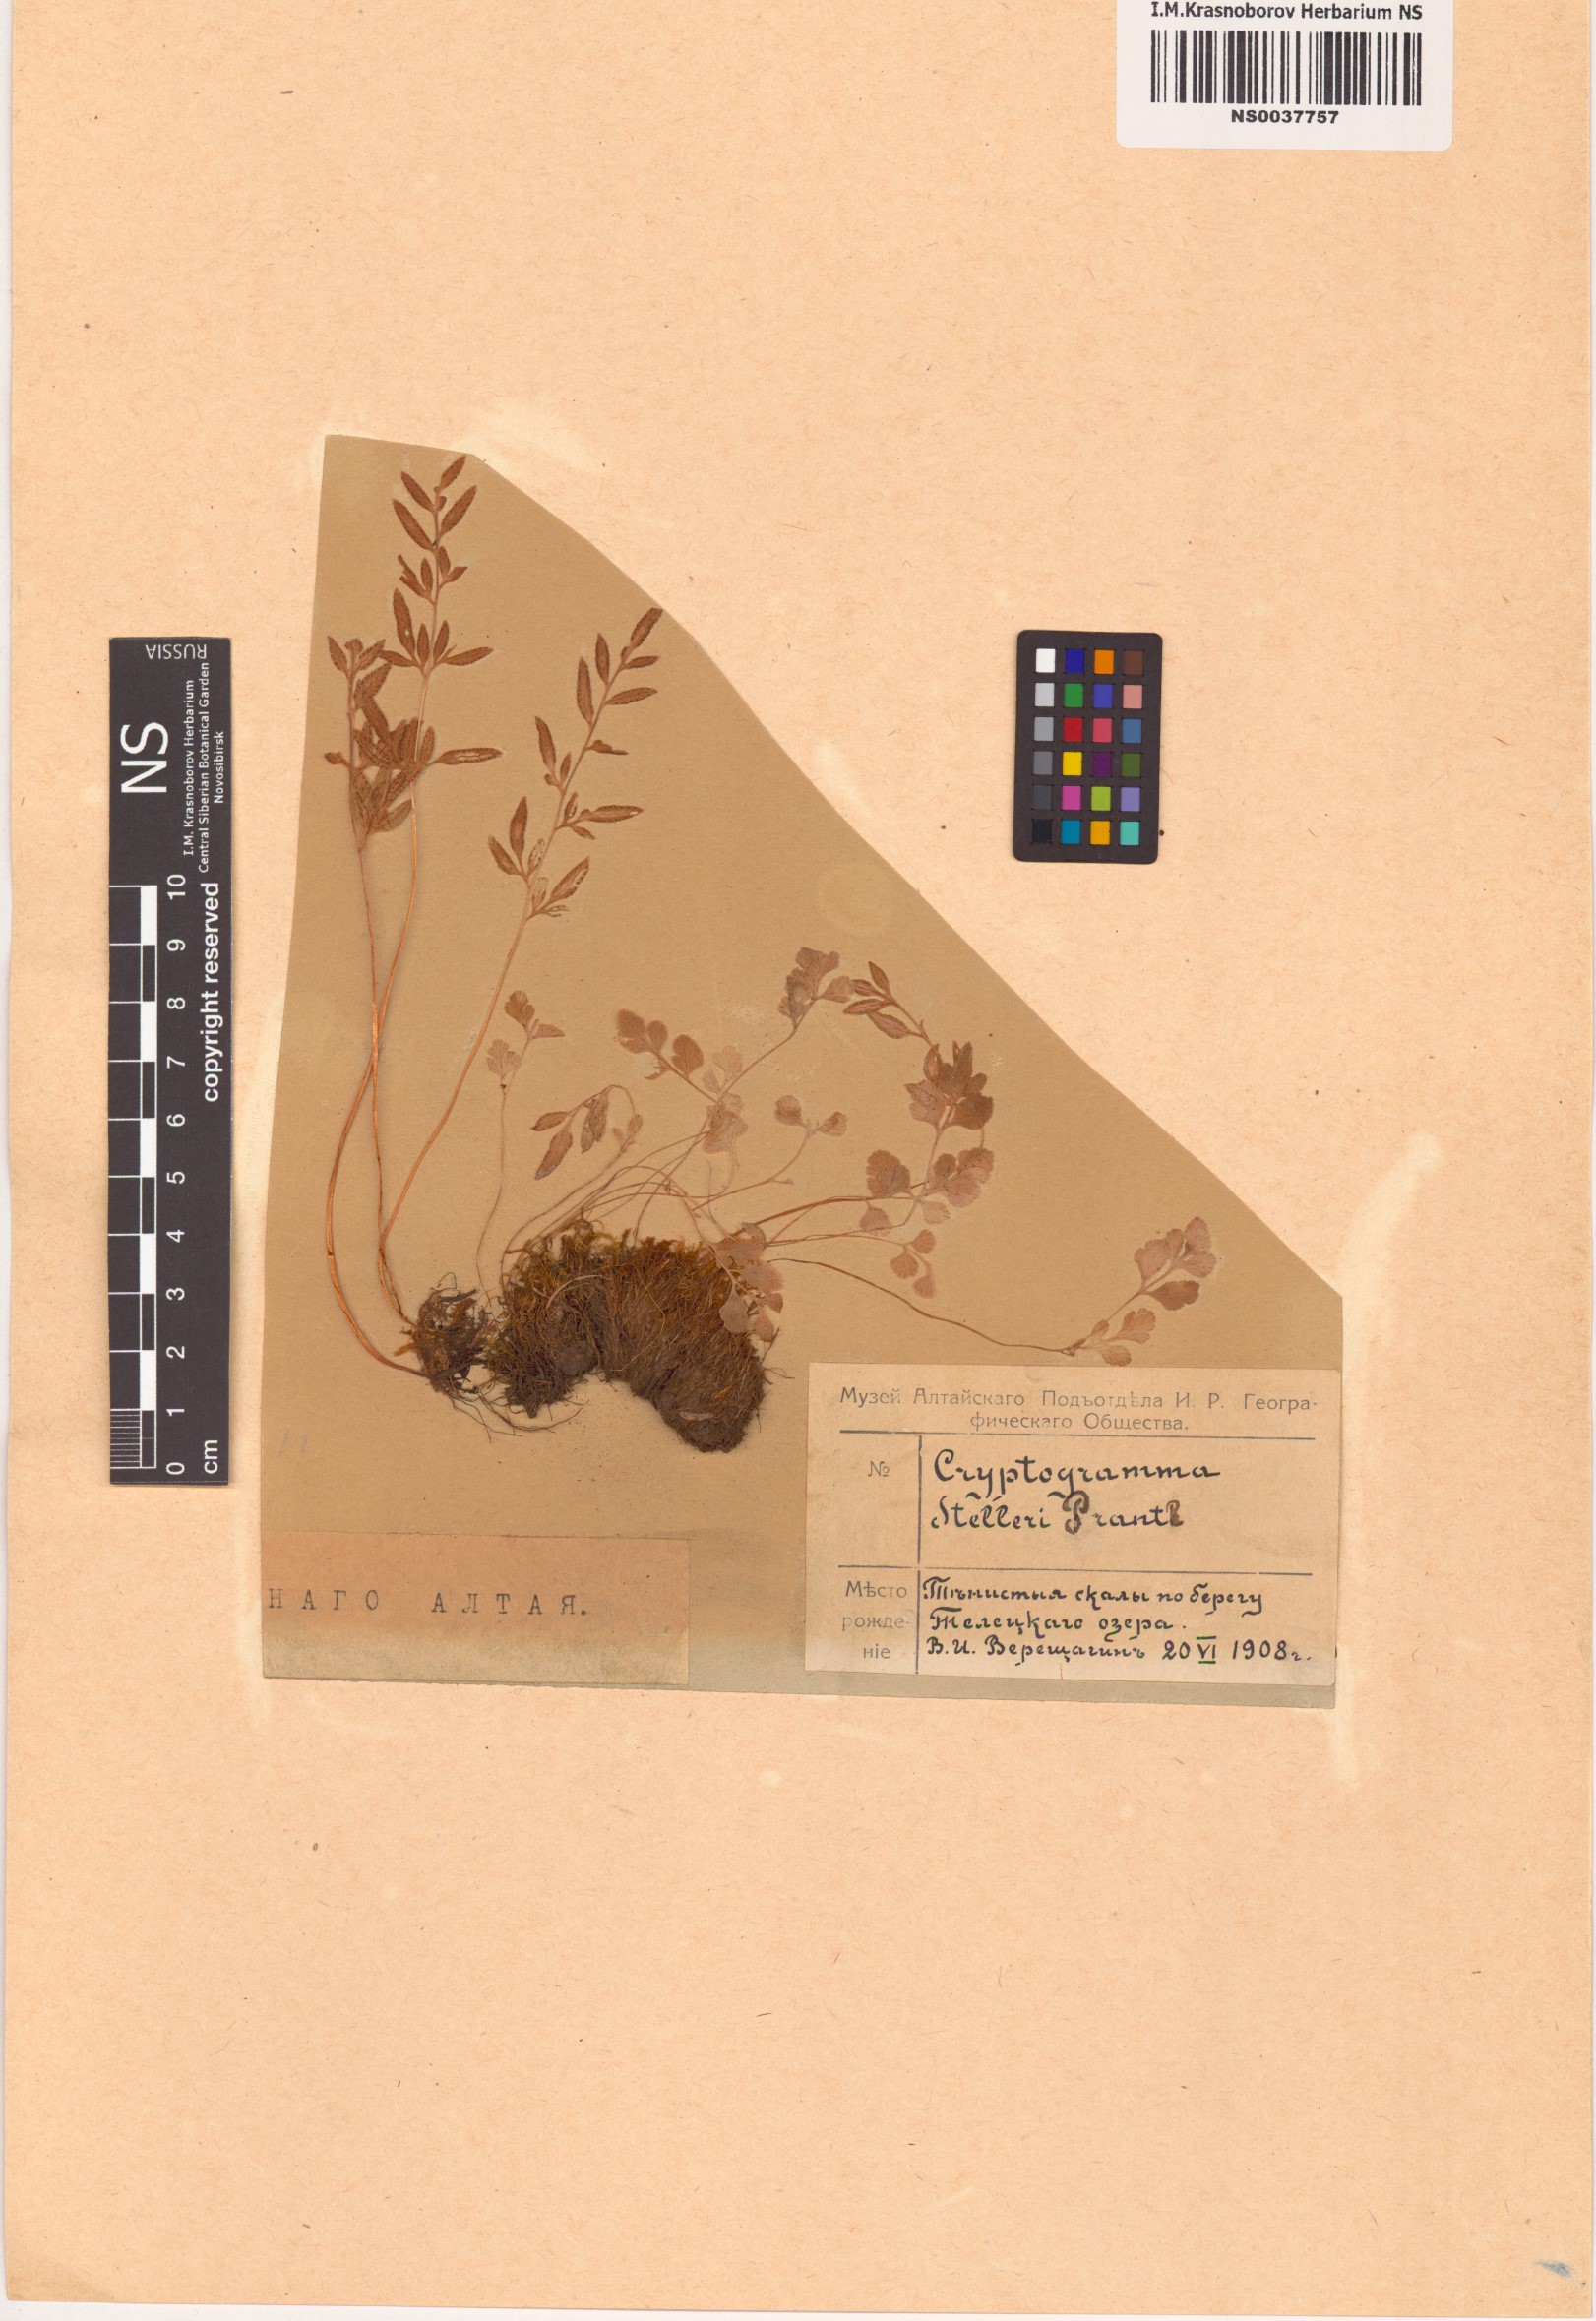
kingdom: Plantae
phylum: Tracheophyta
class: Polypodiopsida
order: Polypodiales
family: Pteridaceae
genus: Cryptogramma
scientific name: Cryptogramma stelleri
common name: Cliff-brake
